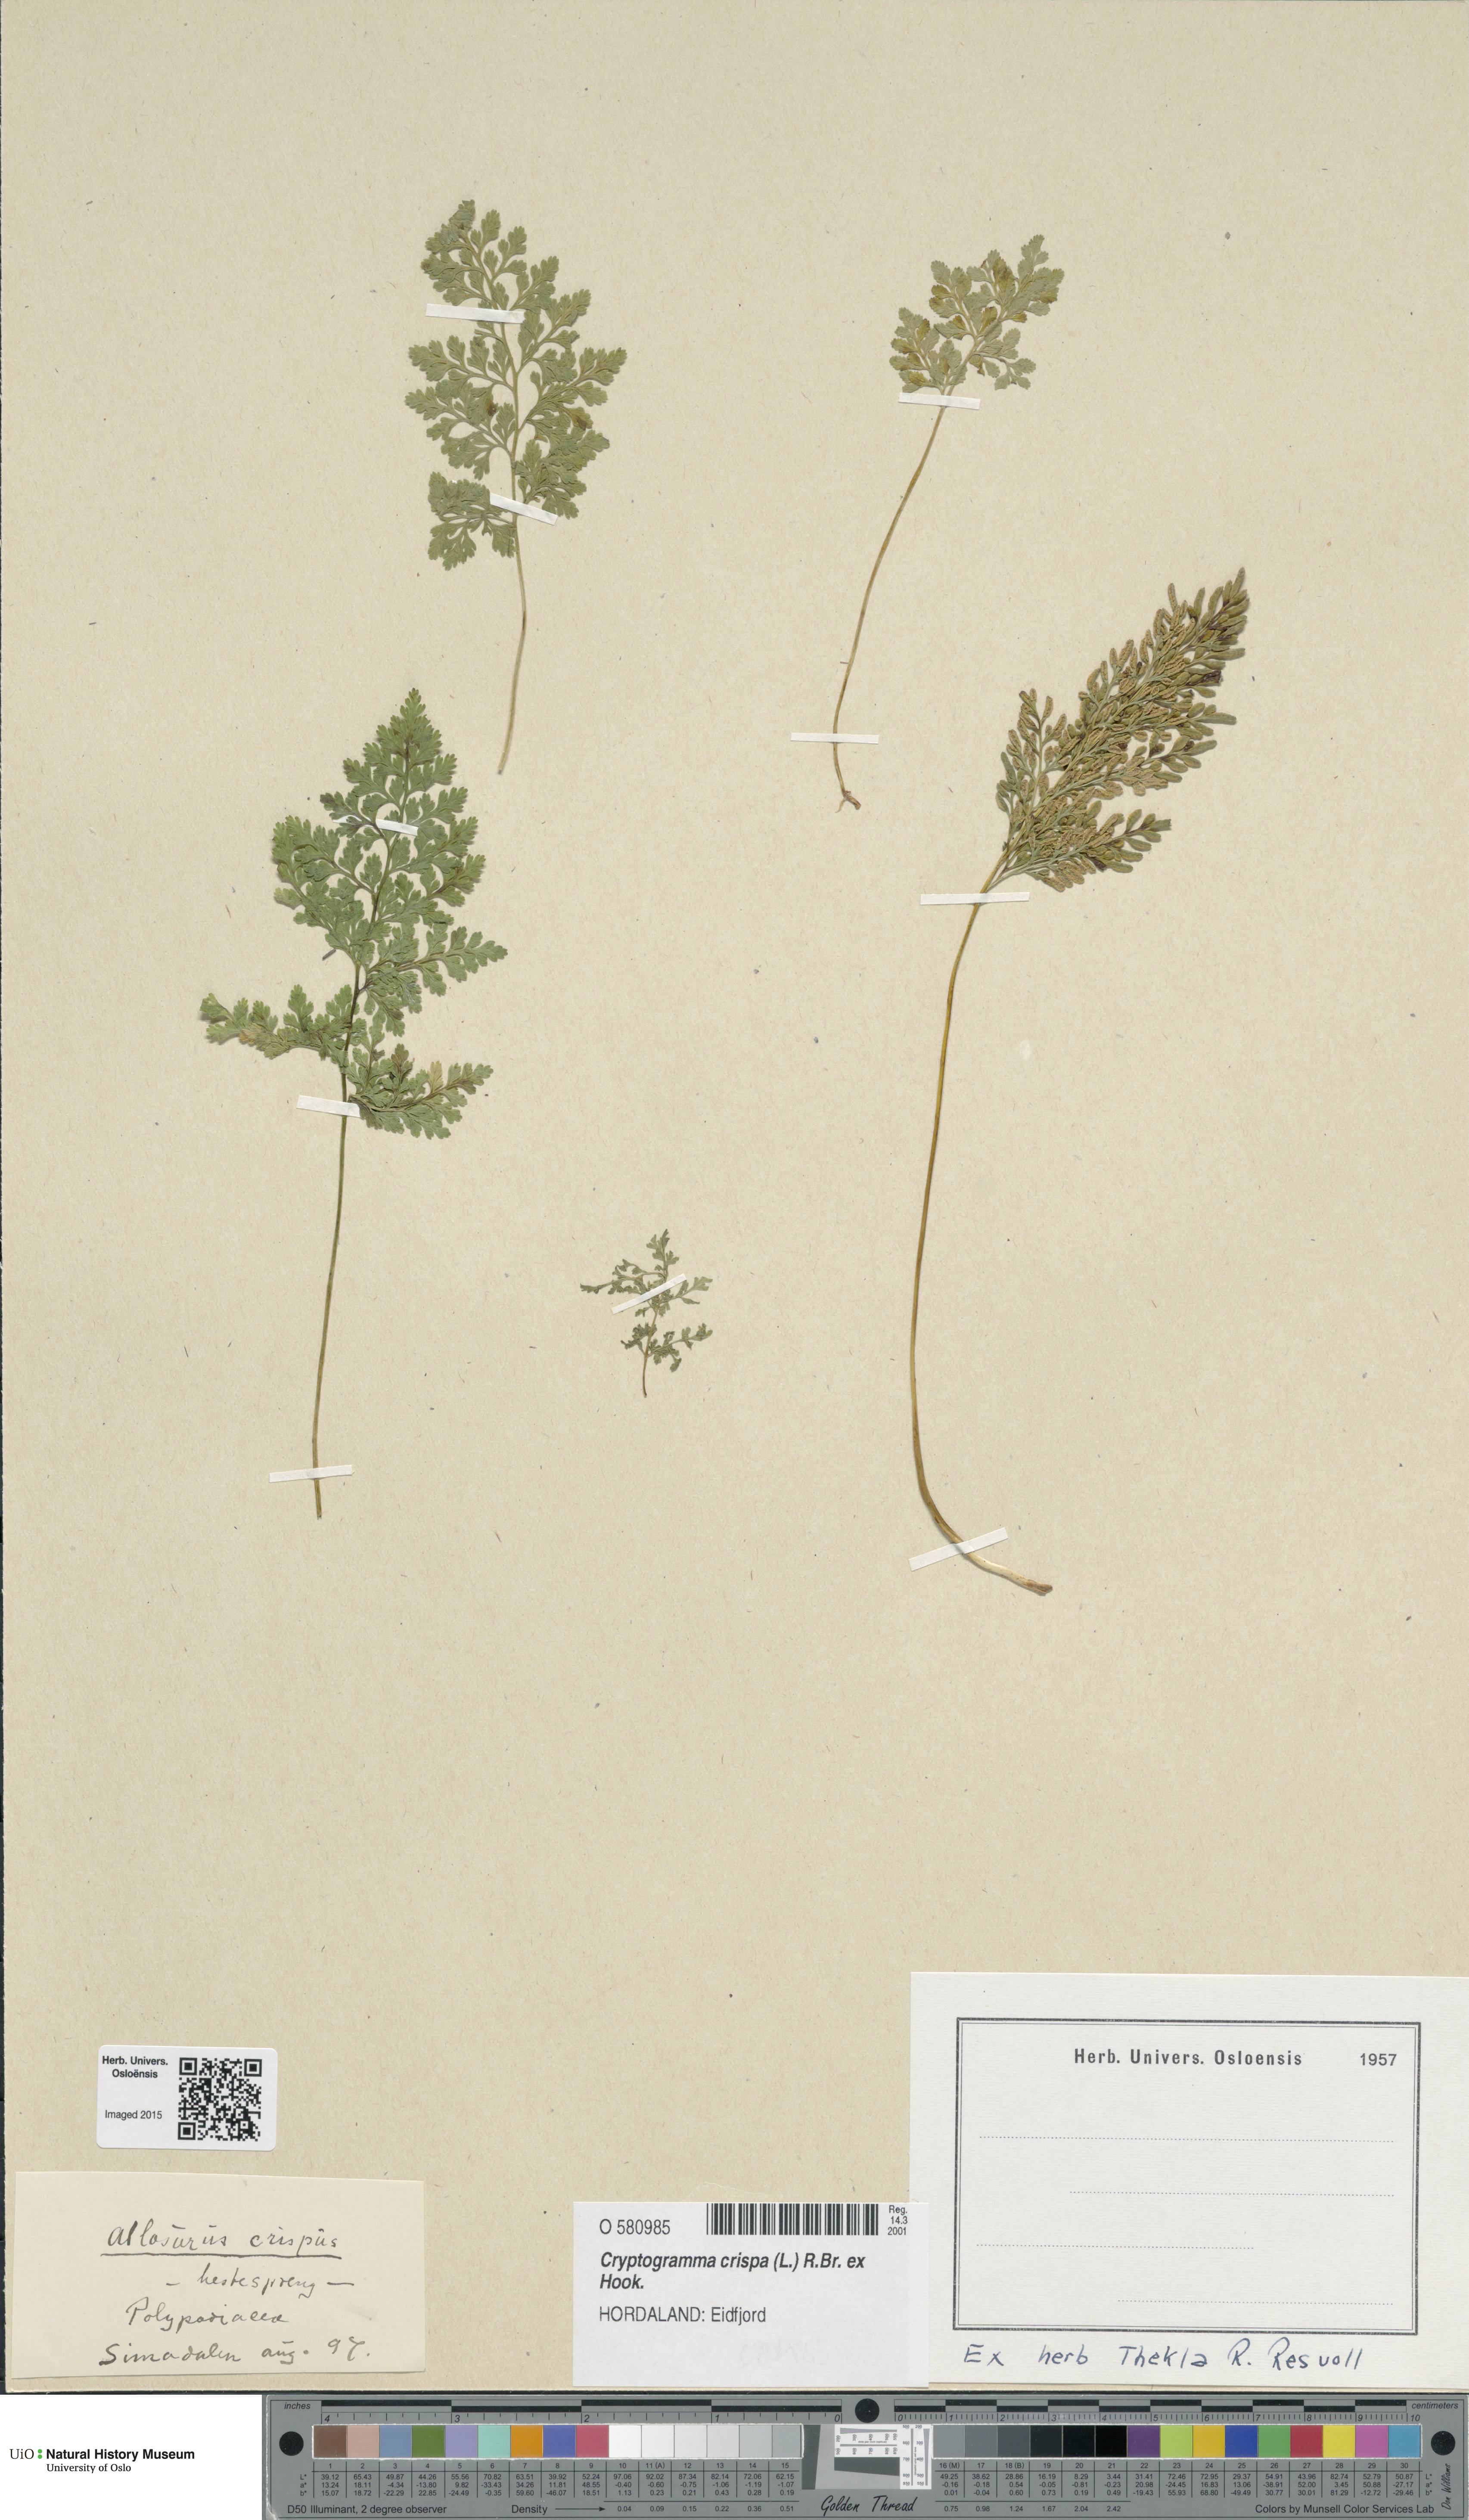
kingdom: Plantae
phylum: Tracheophyta
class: Polypodiopsida
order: Polypodiales
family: Pteridaceae
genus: Cryptogramma
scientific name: Cryptogramma crispa
